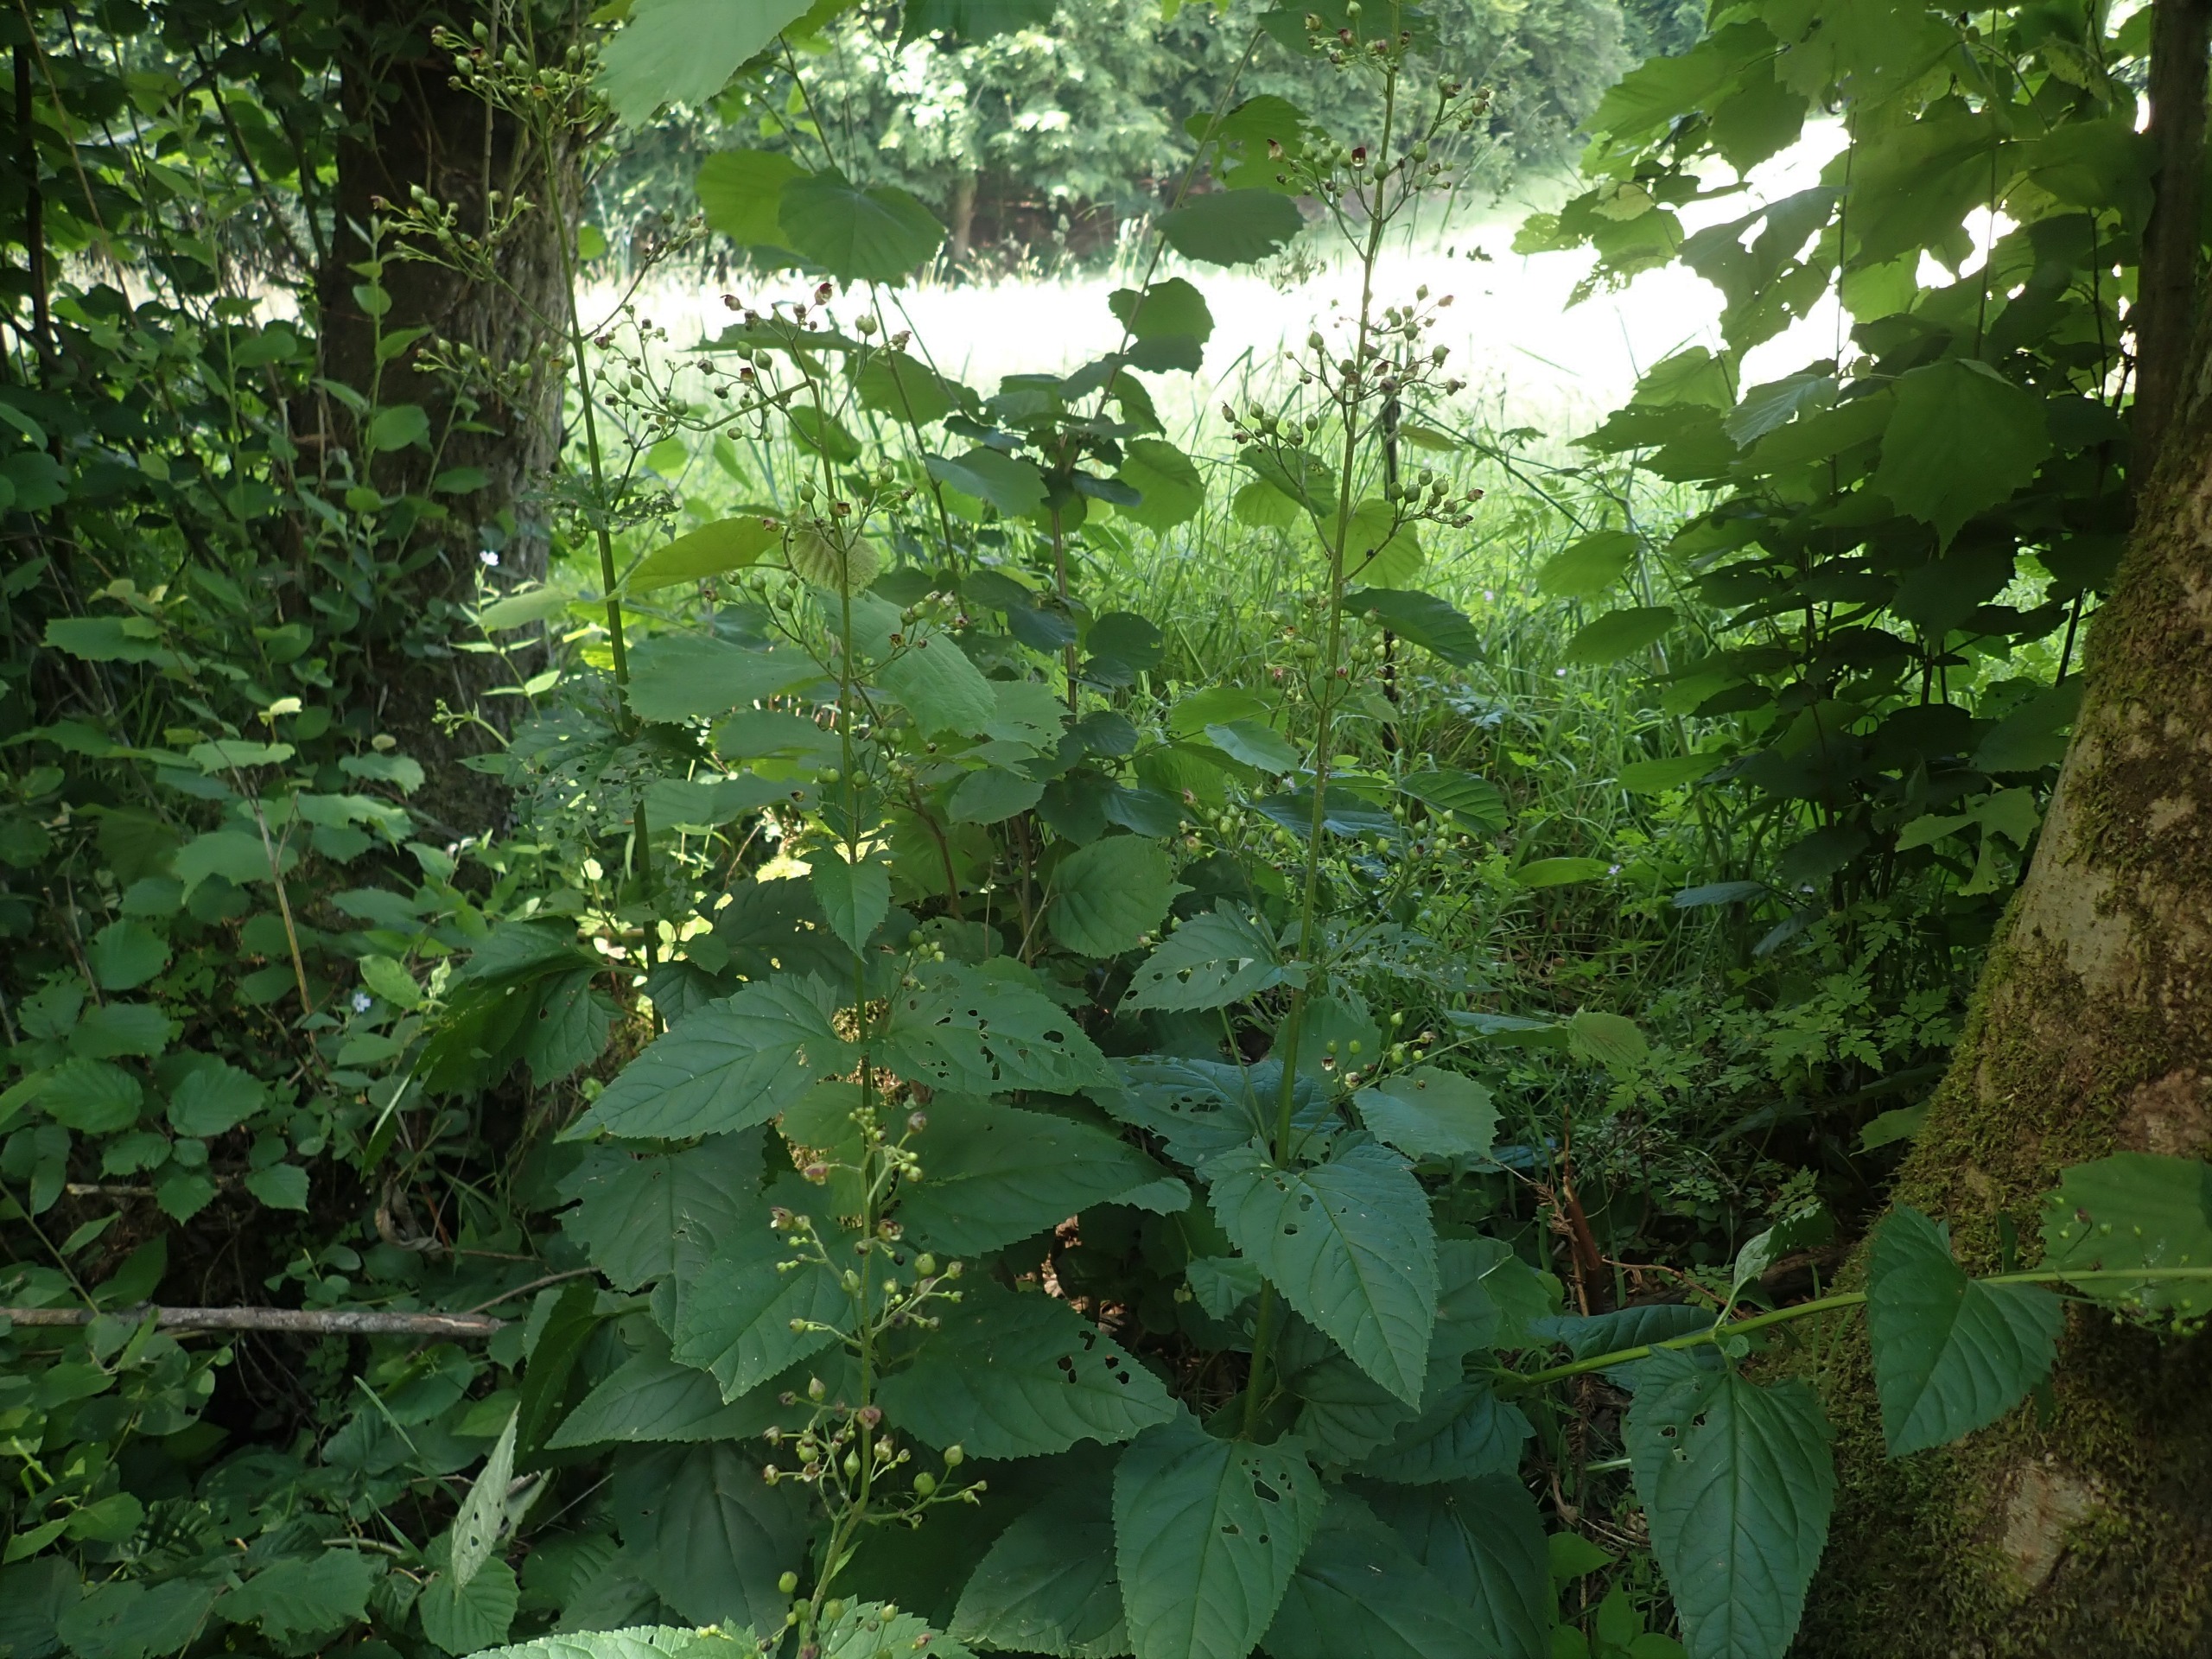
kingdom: Plantae
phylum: Tracheophyta
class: Magnoliopsida
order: Lamiales
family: Scrophulariaceae
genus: Scrophularia
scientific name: Scrophularia nodosa
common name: Knoldet brunrod
